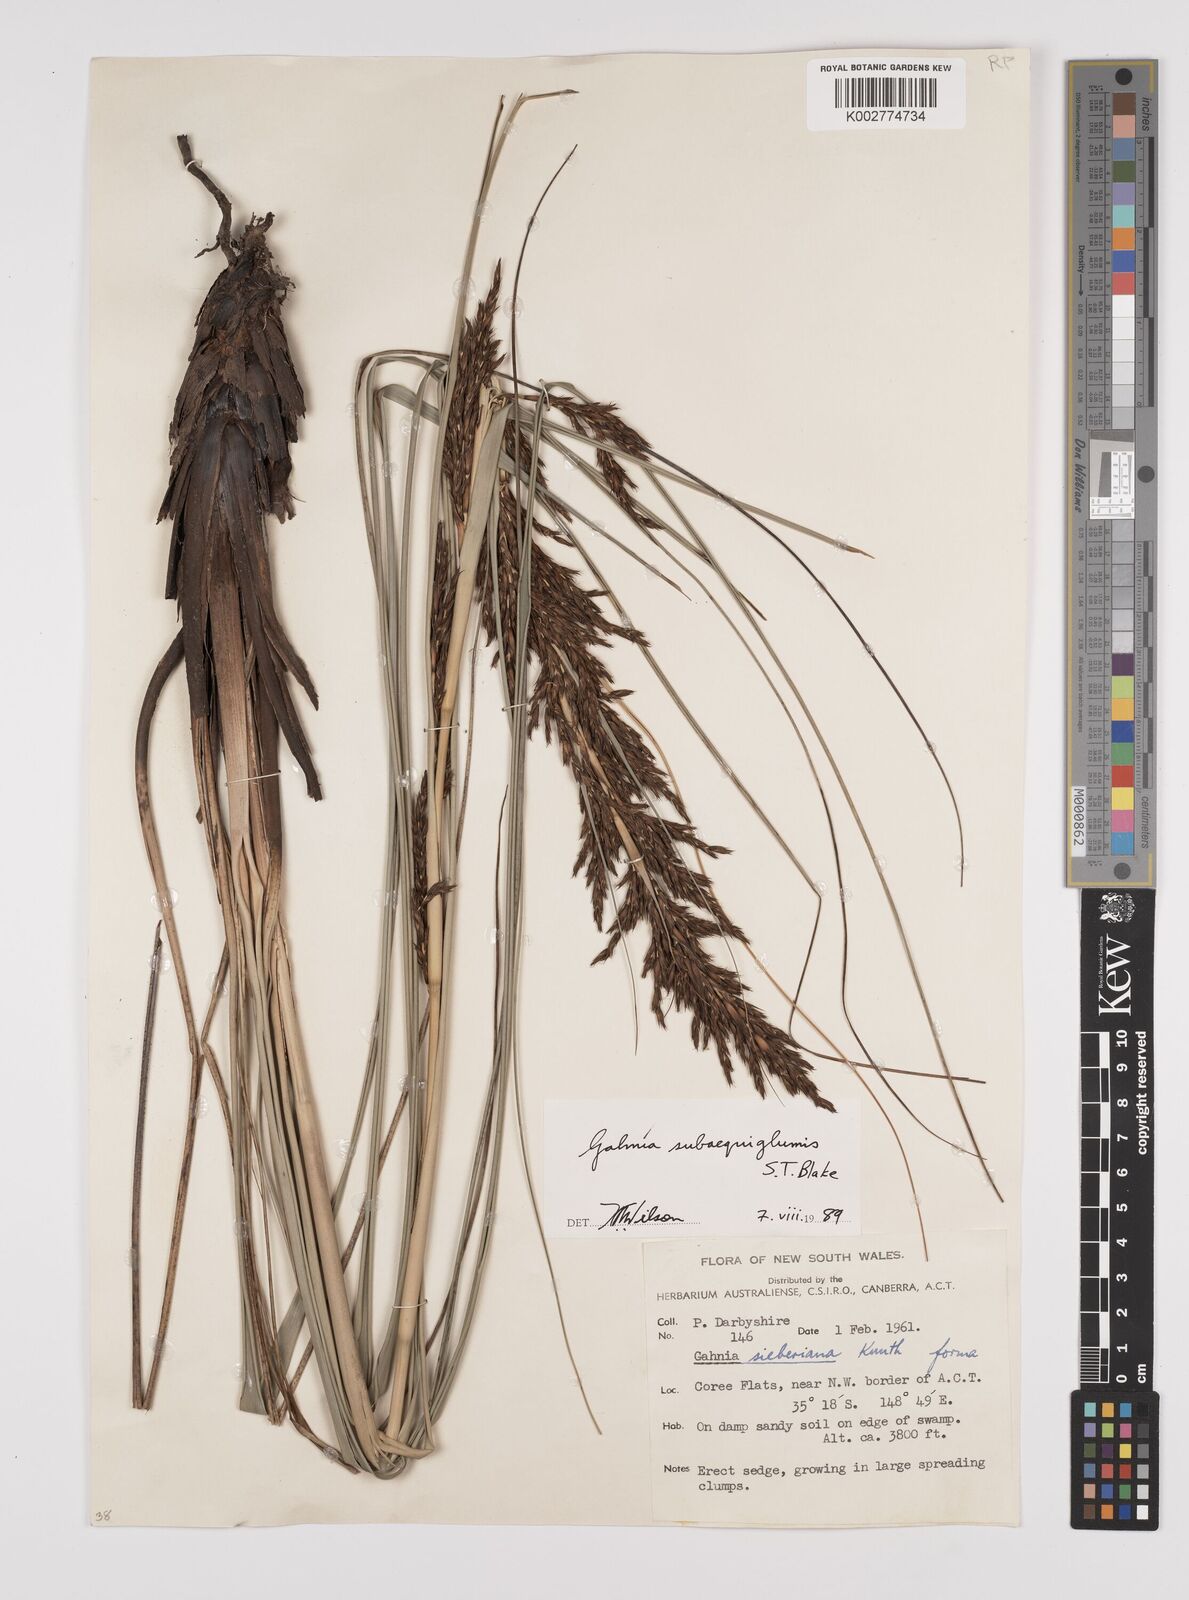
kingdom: Plantae
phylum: Tracheophyta
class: Liliopsida
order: Poales
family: Cyperaceae
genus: Gahnia
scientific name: Gahnia subaequiglumis
